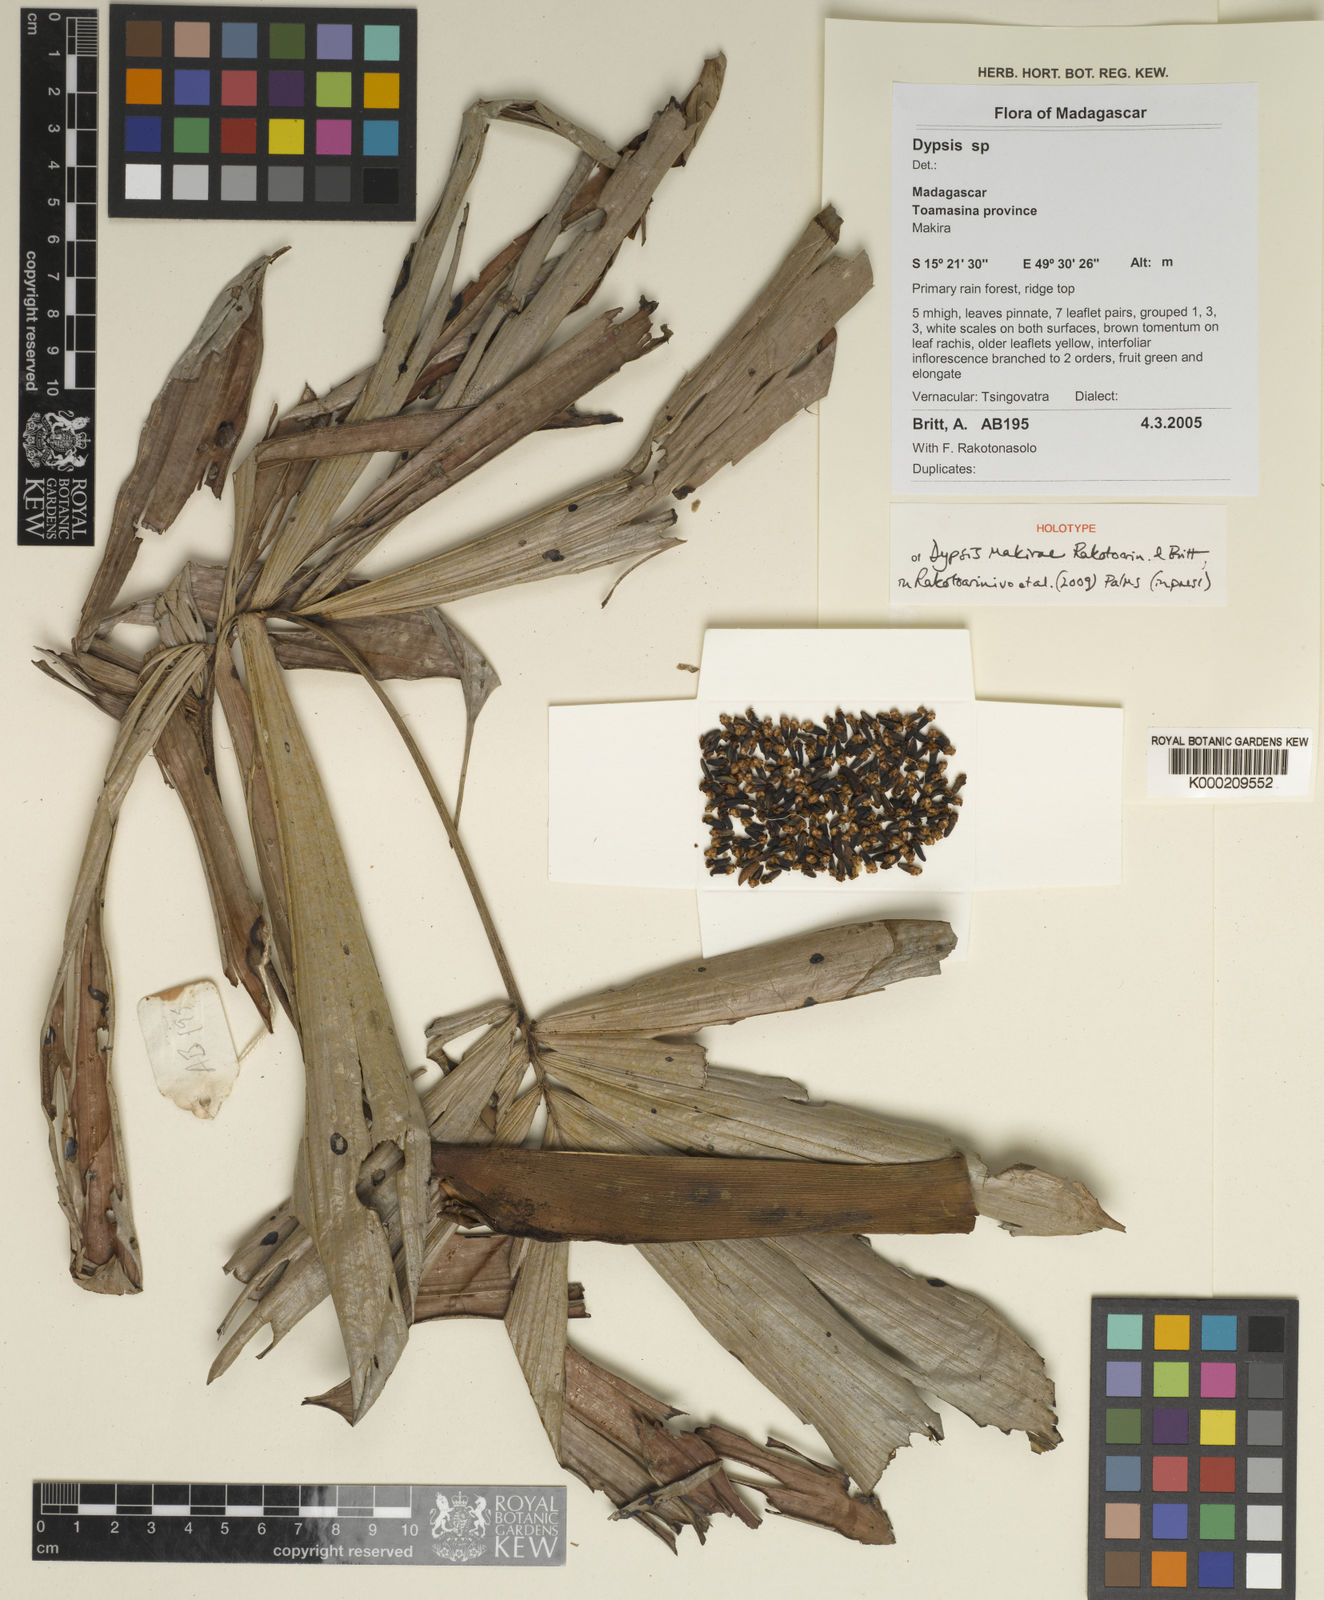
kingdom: Plantae
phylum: Tracheophyta
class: Liliopsida
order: Arecales
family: Arecaceae
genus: Dypsis
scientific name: Dypsis makirae
